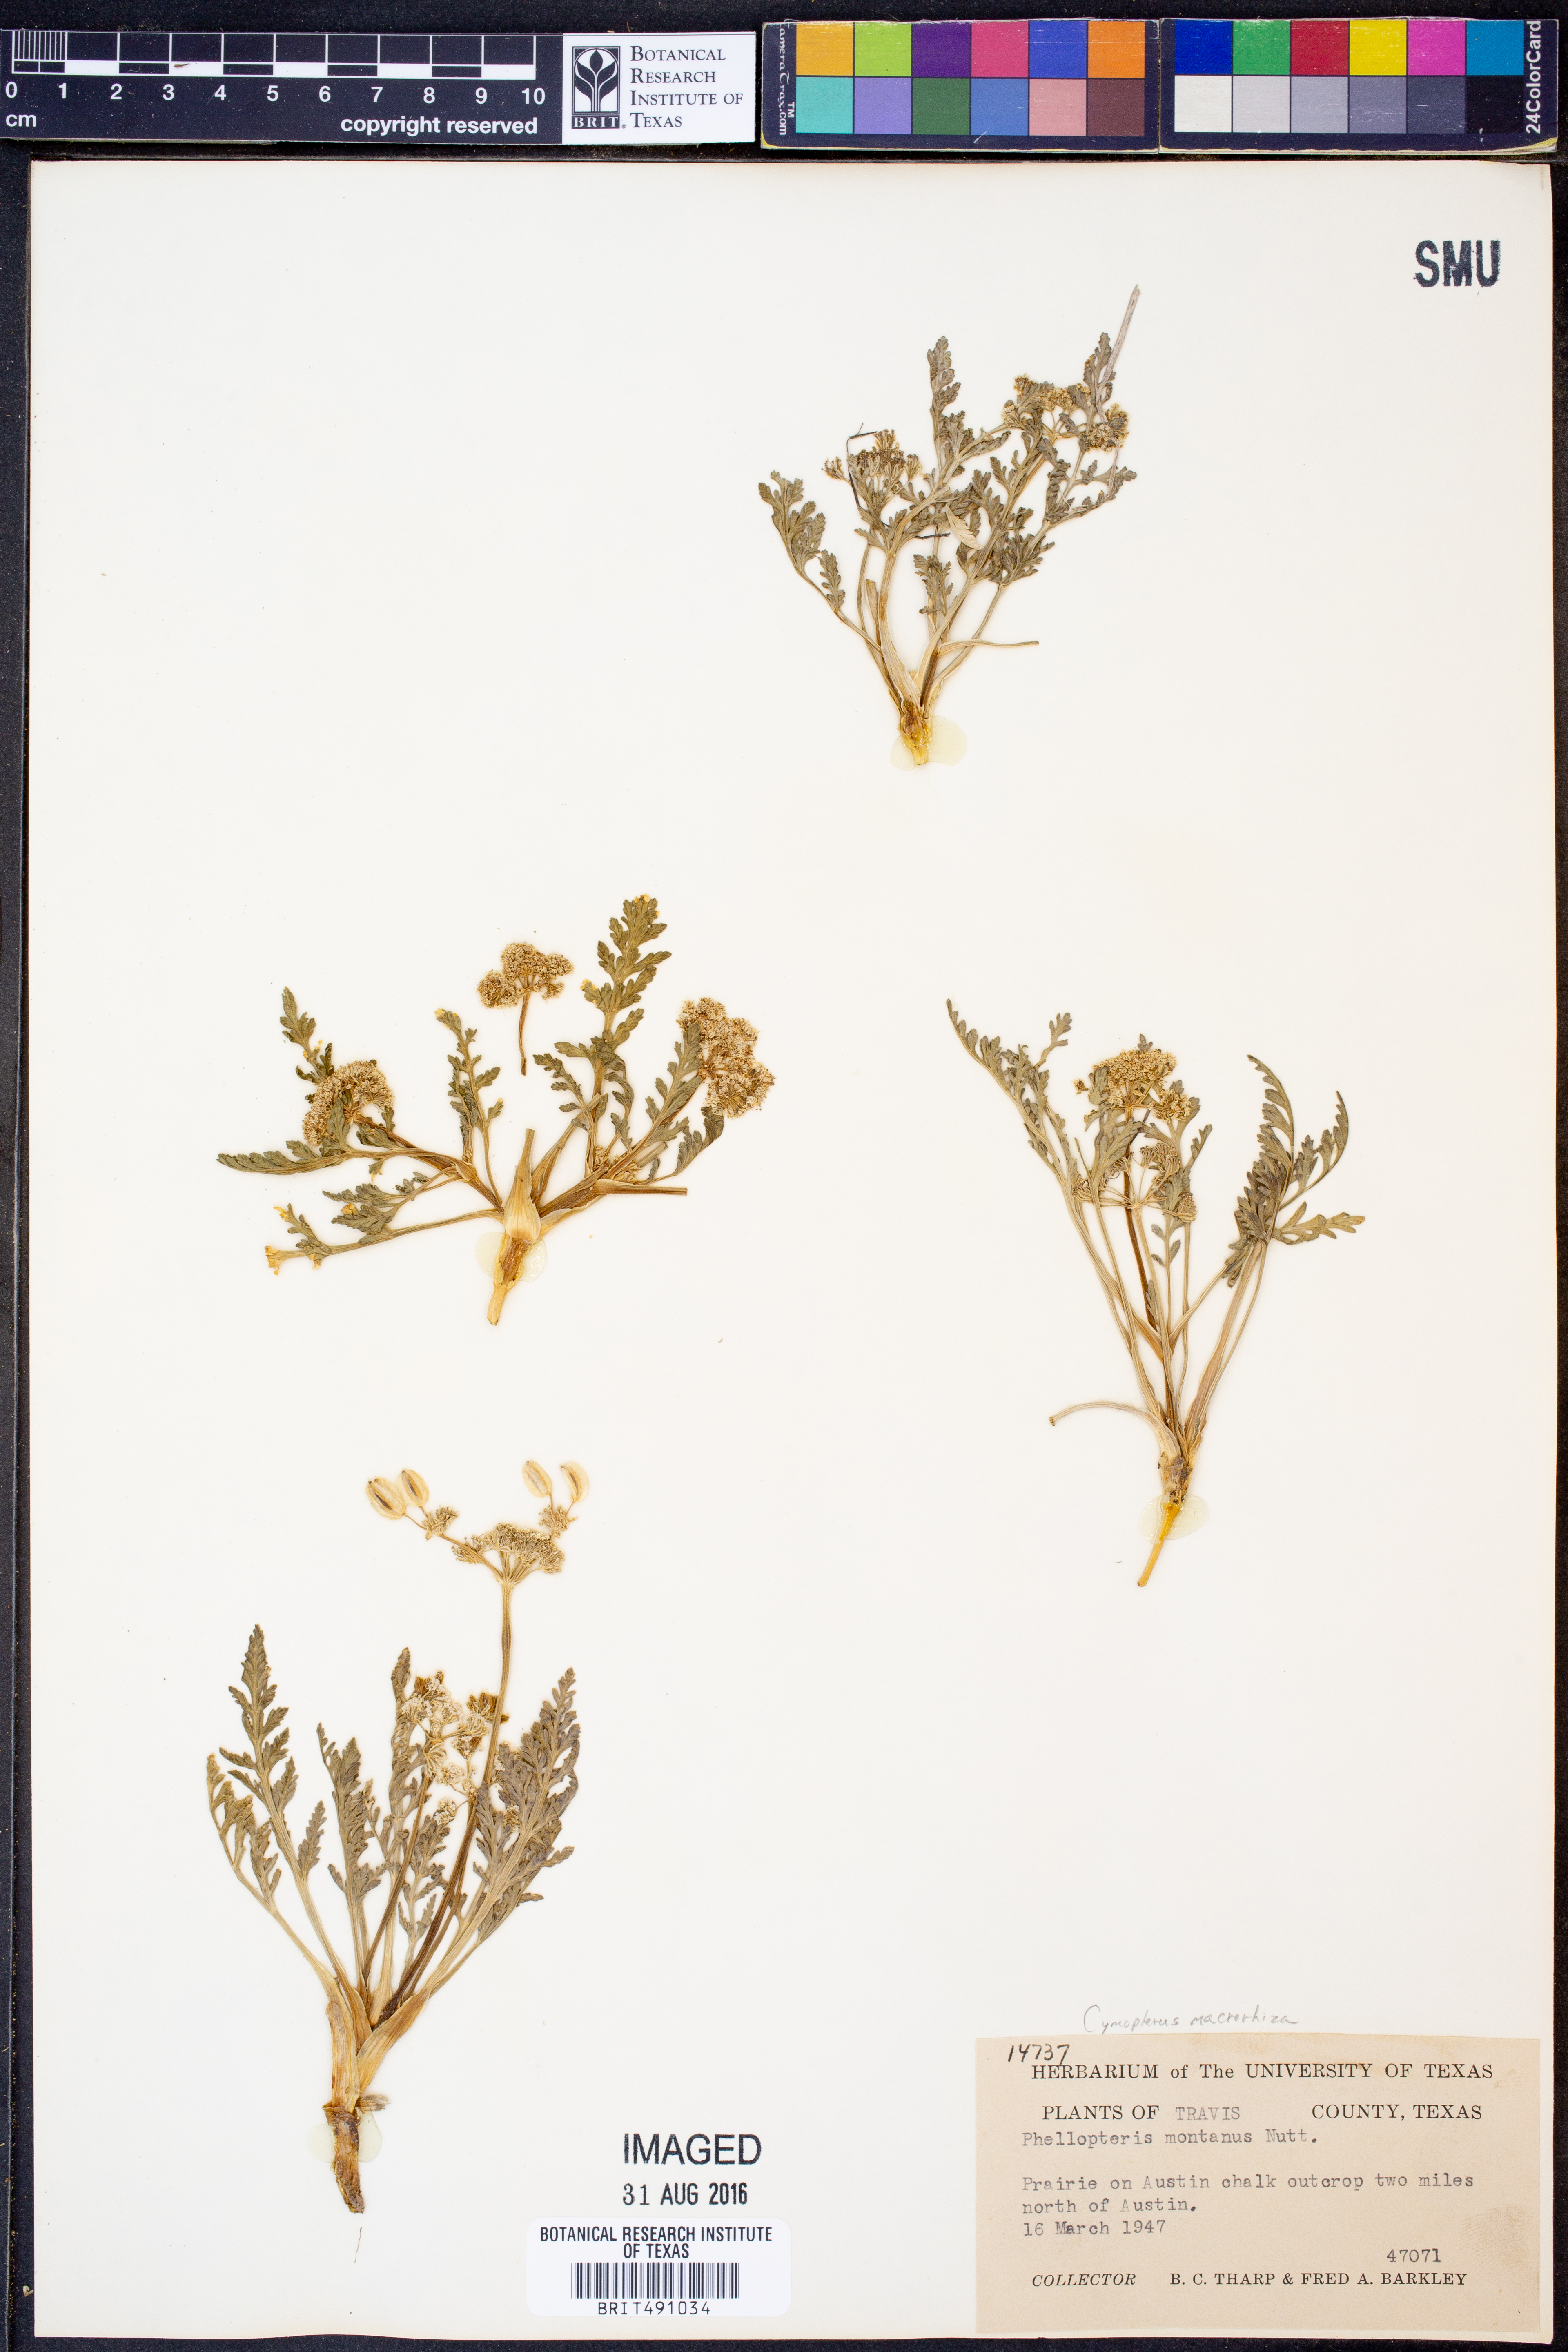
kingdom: Plantae
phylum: Tracheophyta
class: Magnoliopsida
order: Apiales
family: Apiaceae
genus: Vesper
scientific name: Vesper macrorhizus
